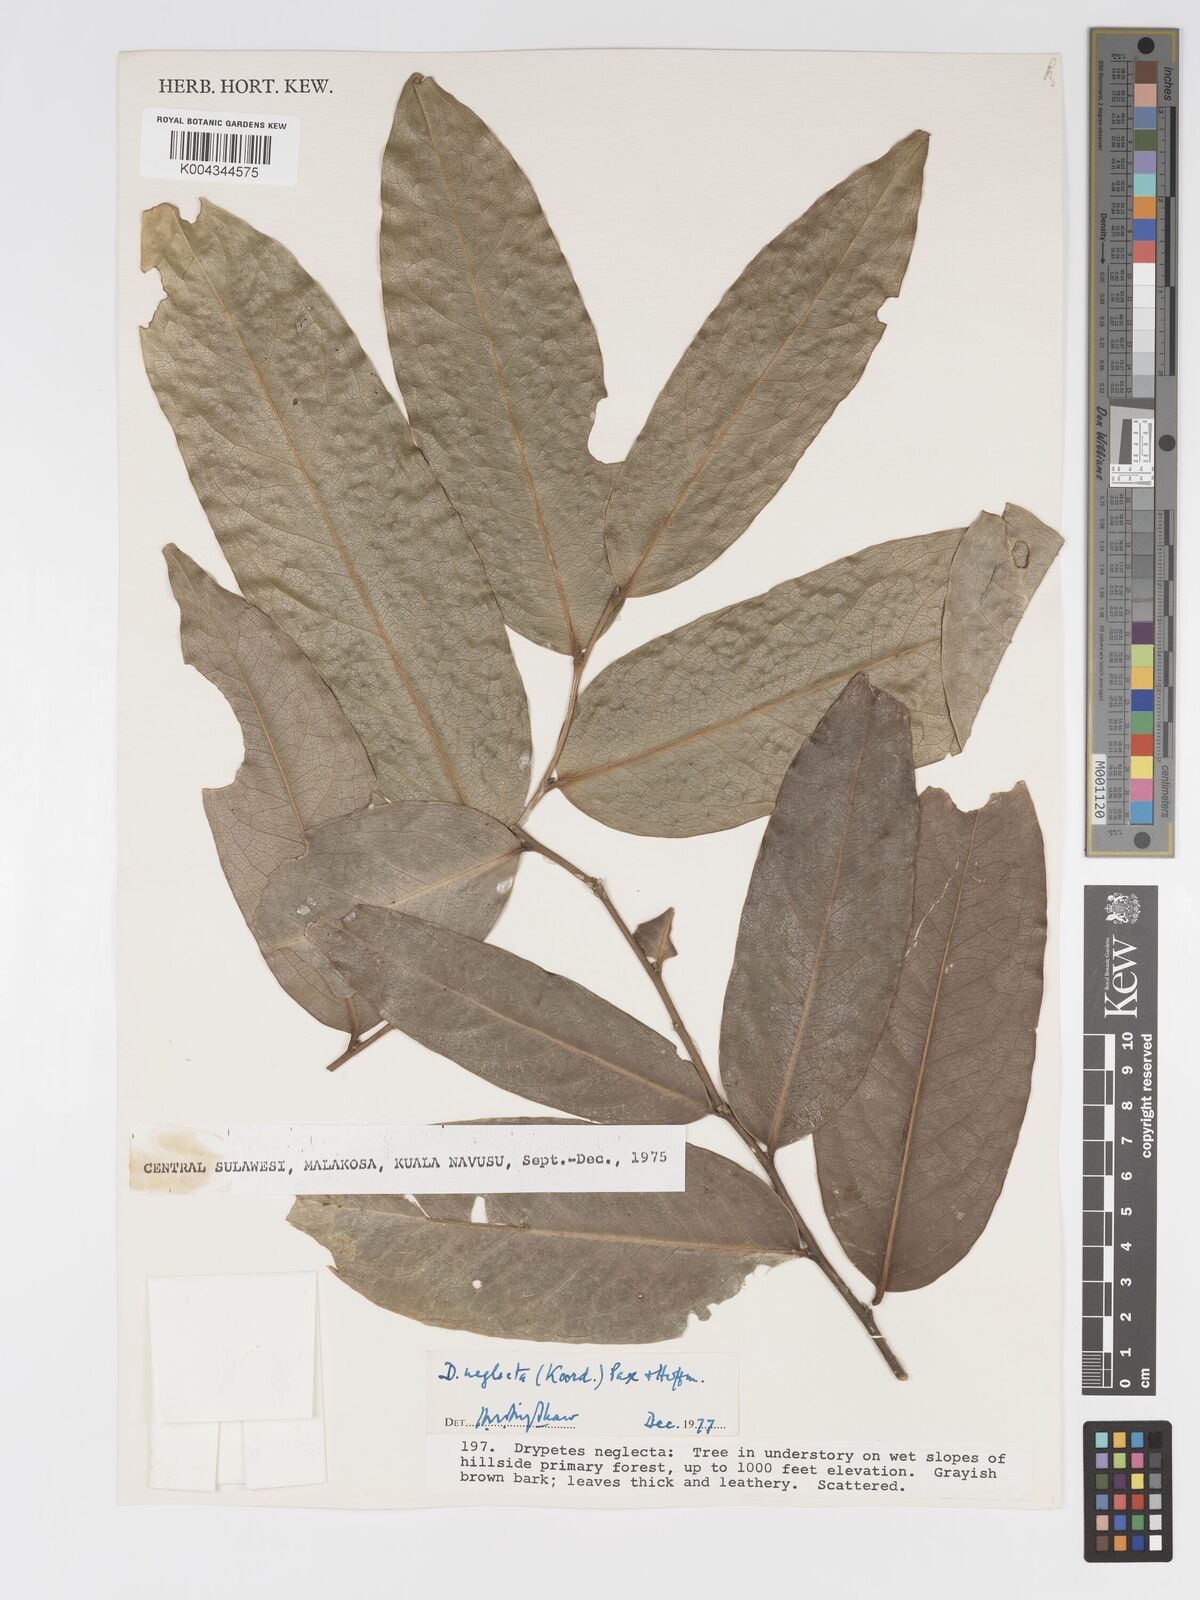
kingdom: Plantae
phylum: Tracheophyta
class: Magnoliopsida
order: Malpighiales
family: Putranjivaceae
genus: Drypetes
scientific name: Drypetes neglecta
